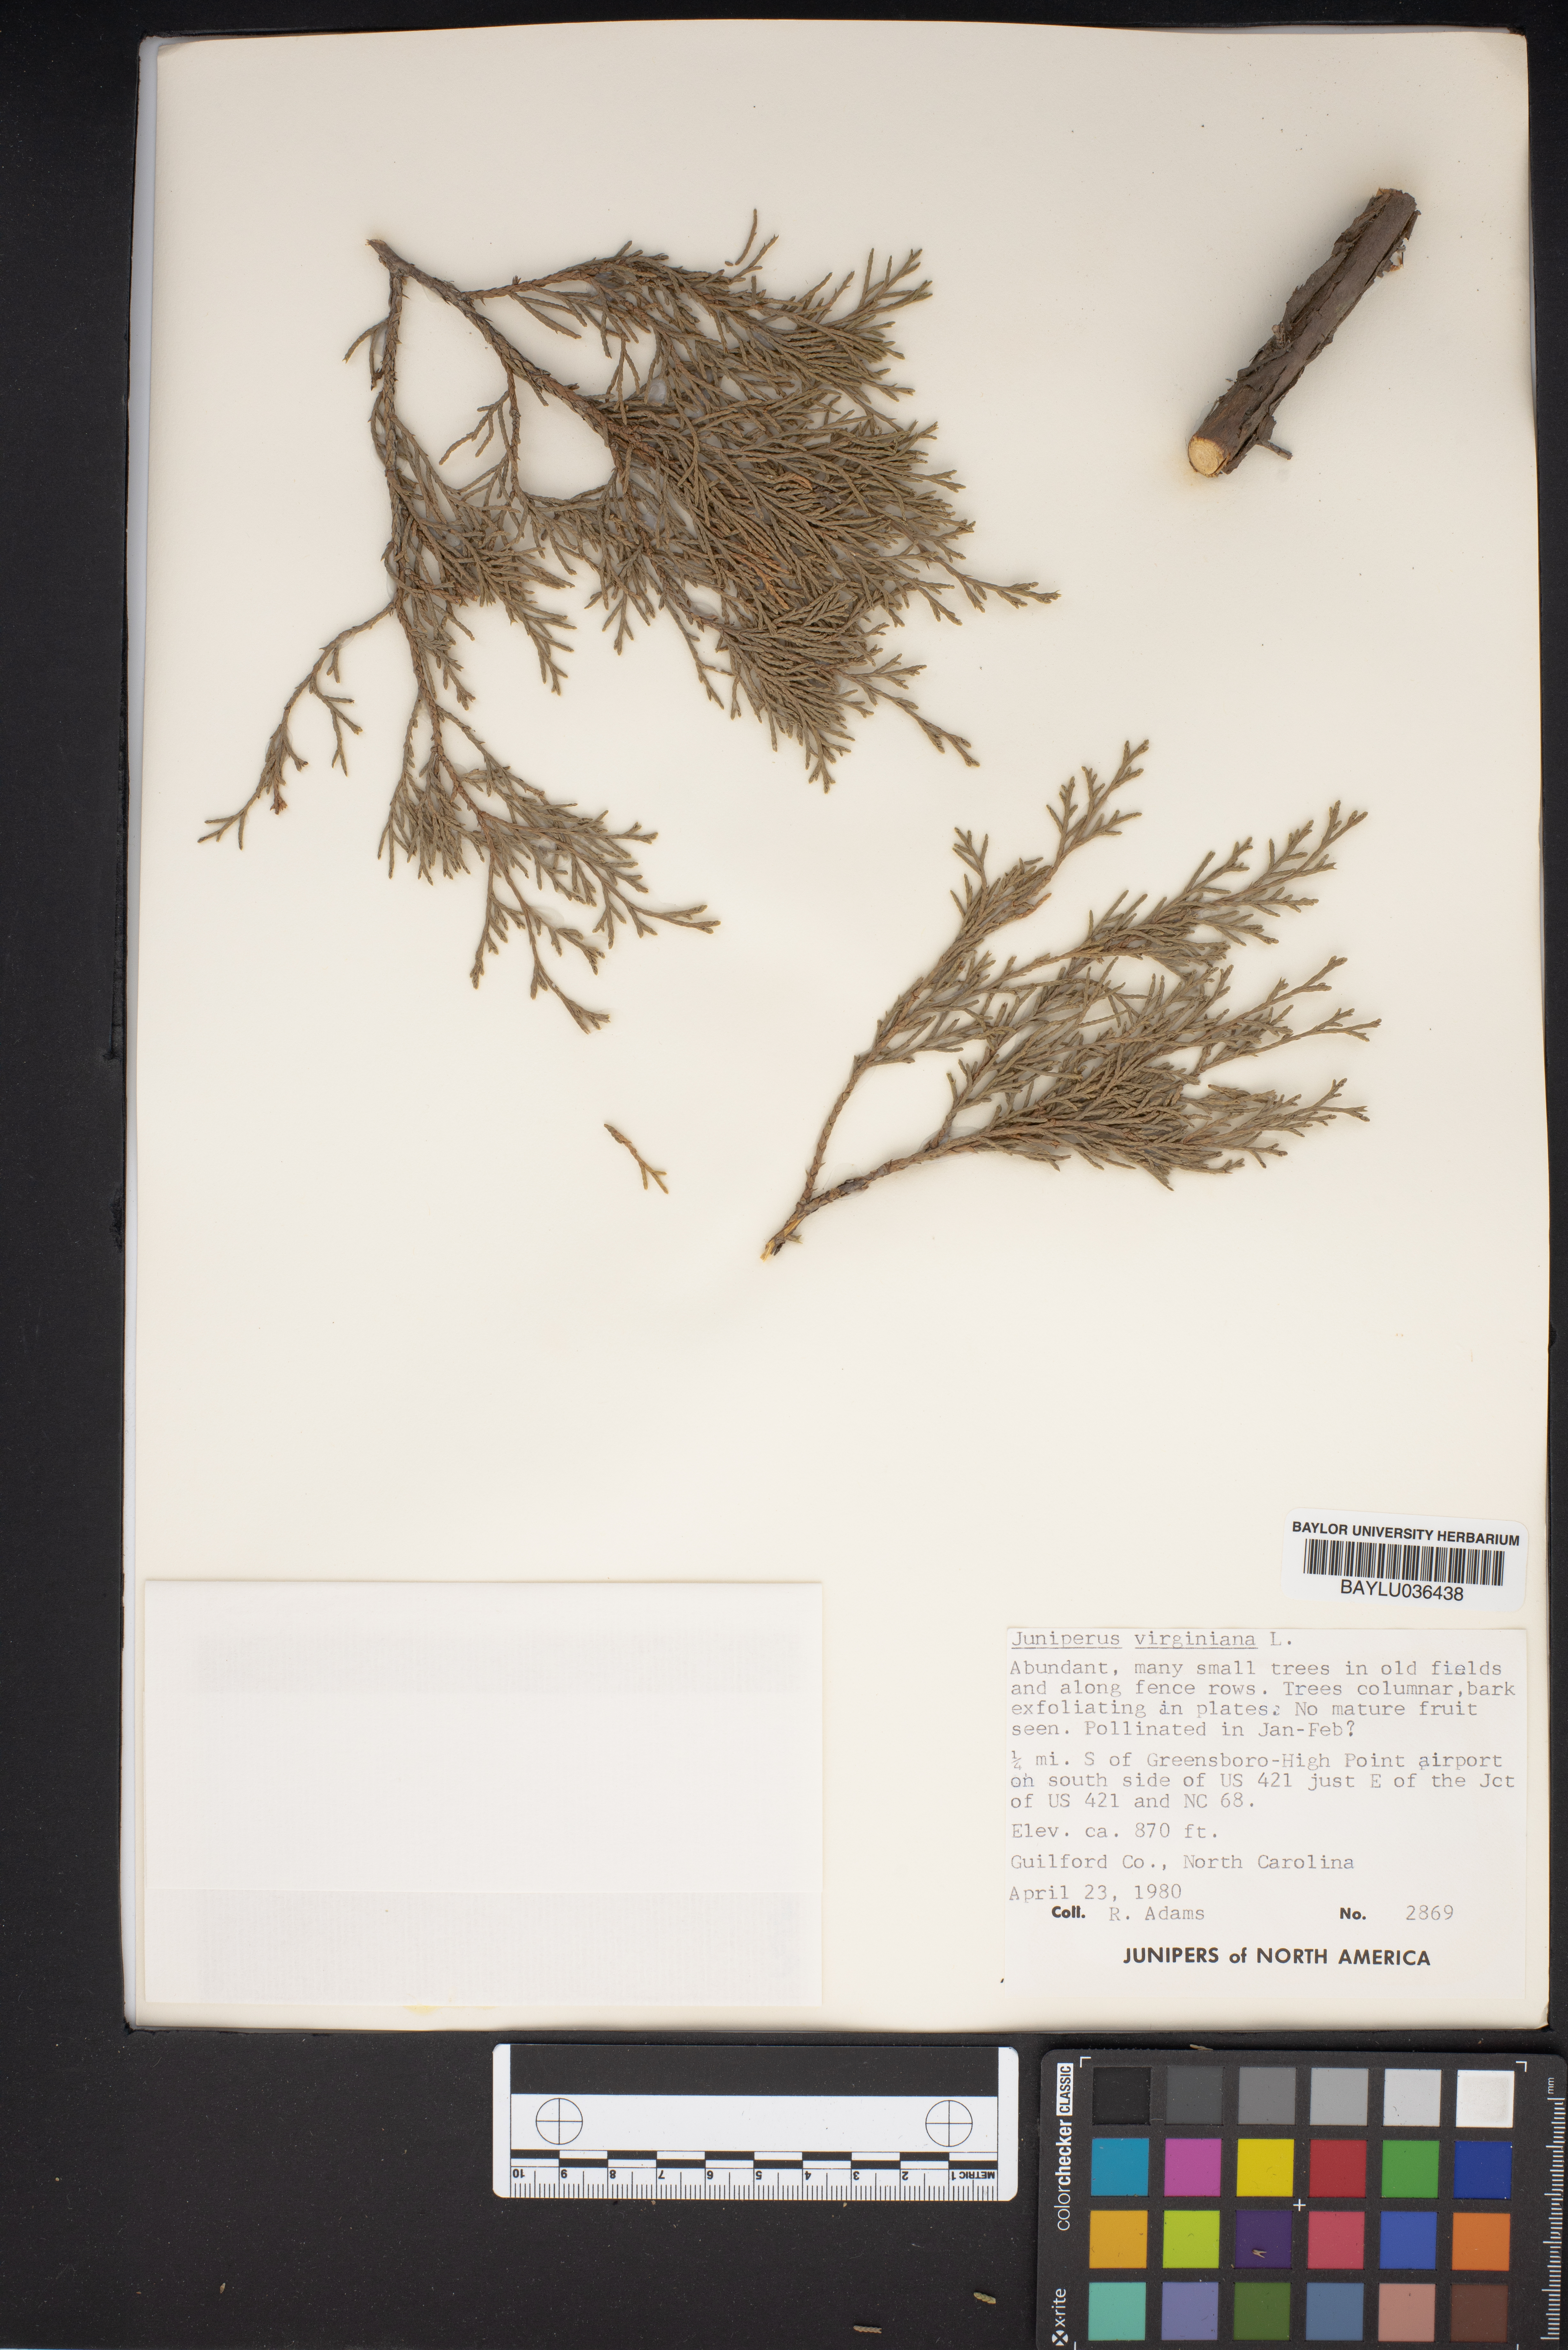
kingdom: Plantae
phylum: Tracheophyta
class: Pinopsida
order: Pinales
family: Cupressaceae
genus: Juniperus
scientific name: Juniperus virginiana
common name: Red juniper
